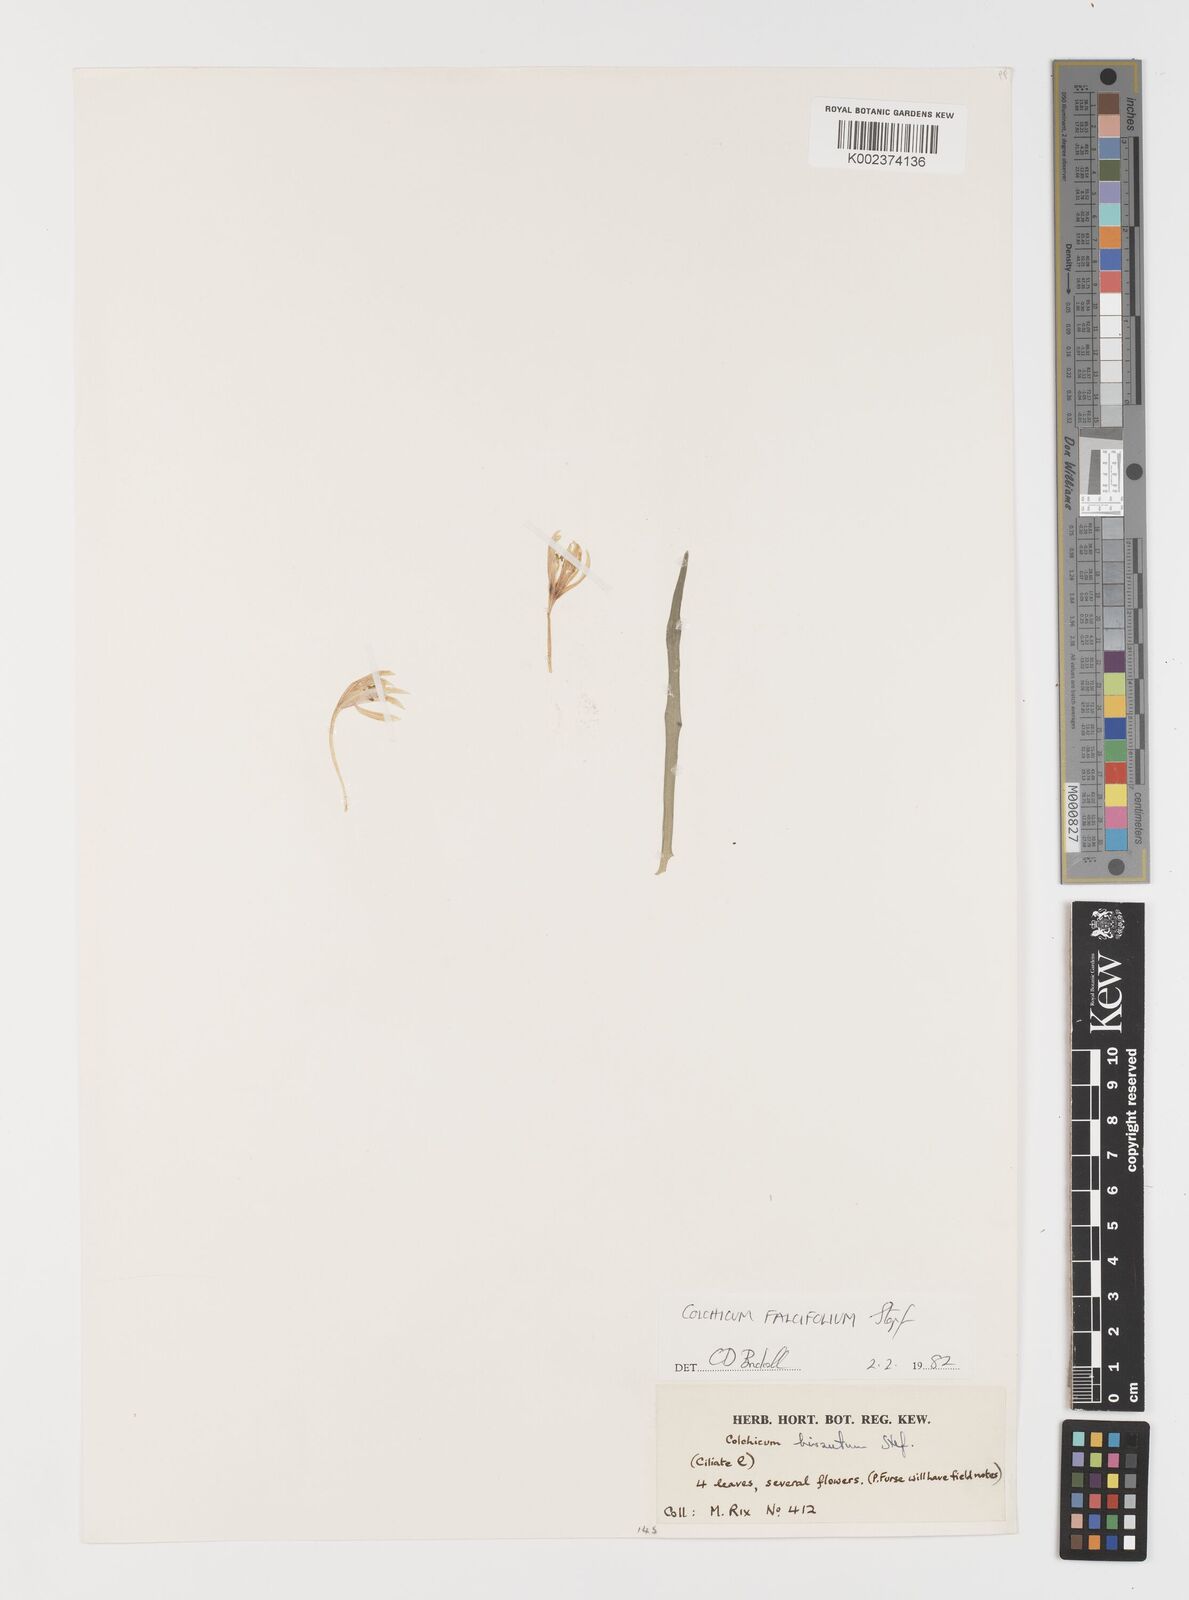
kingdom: Plantae
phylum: Tracheophyta
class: Liliopsida
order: Asparagales
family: Iridaceae
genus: Iris
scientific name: Iris caucasica
